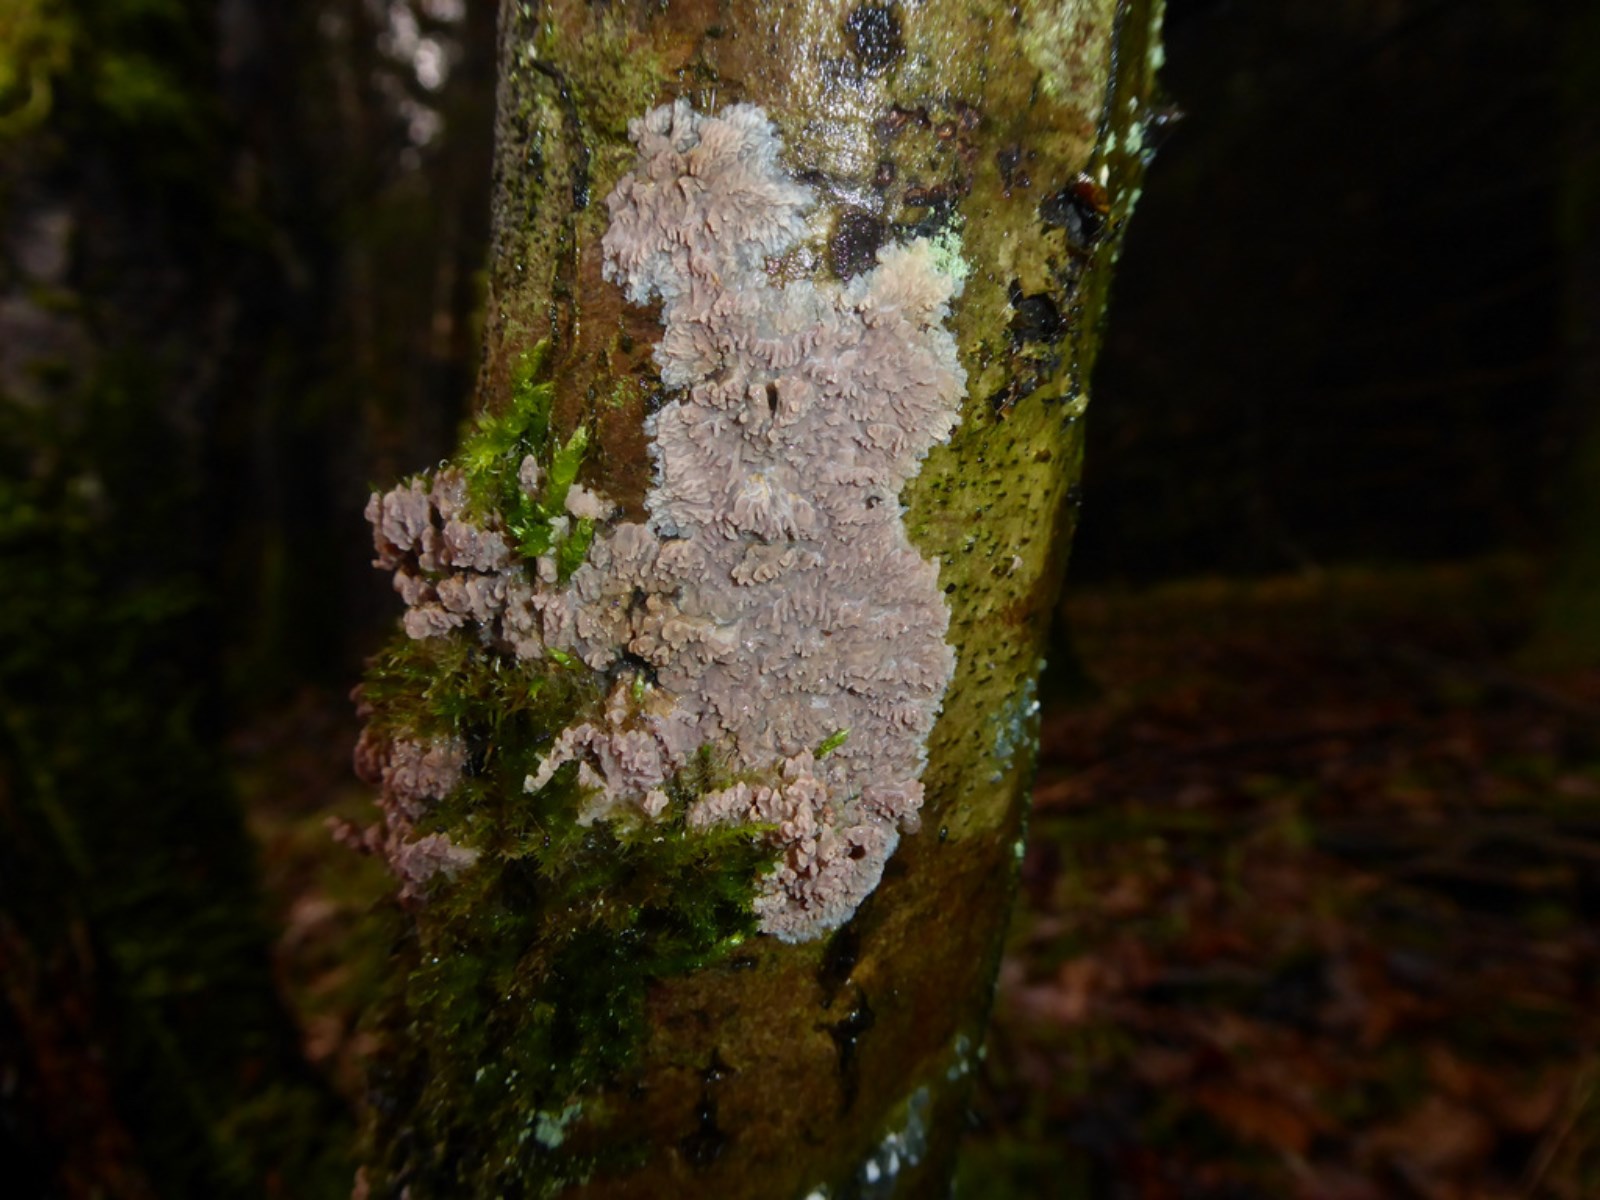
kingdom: Fungi
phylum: Basidiomycota
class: Agaricomycetes
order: Polyporales
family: Meruliaceae
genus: Phlebia
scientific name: Phlebia radiata
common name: stråle-åresvamp
